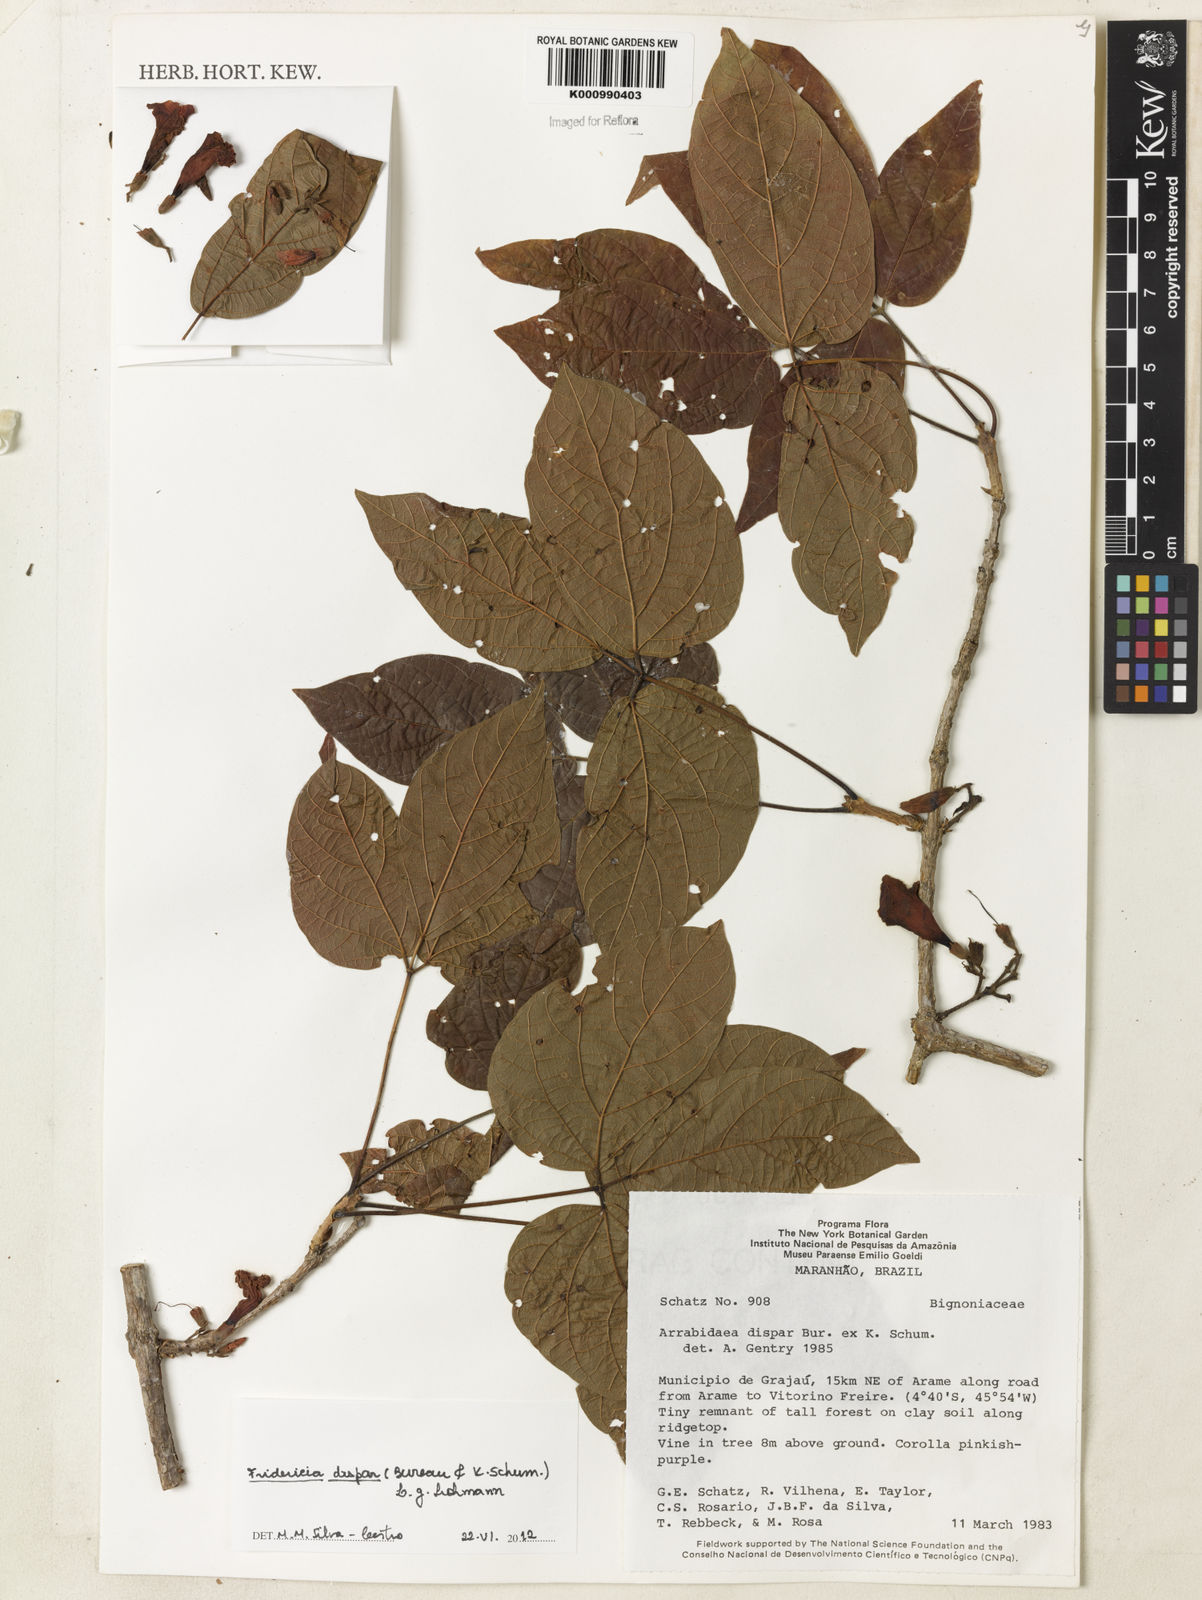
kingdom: Plantae
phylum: Tracheophyta
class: Magnoliopsida
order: Lamiales
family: Bignoniaceae
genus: Fridericia
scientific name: Fridericia dispar
